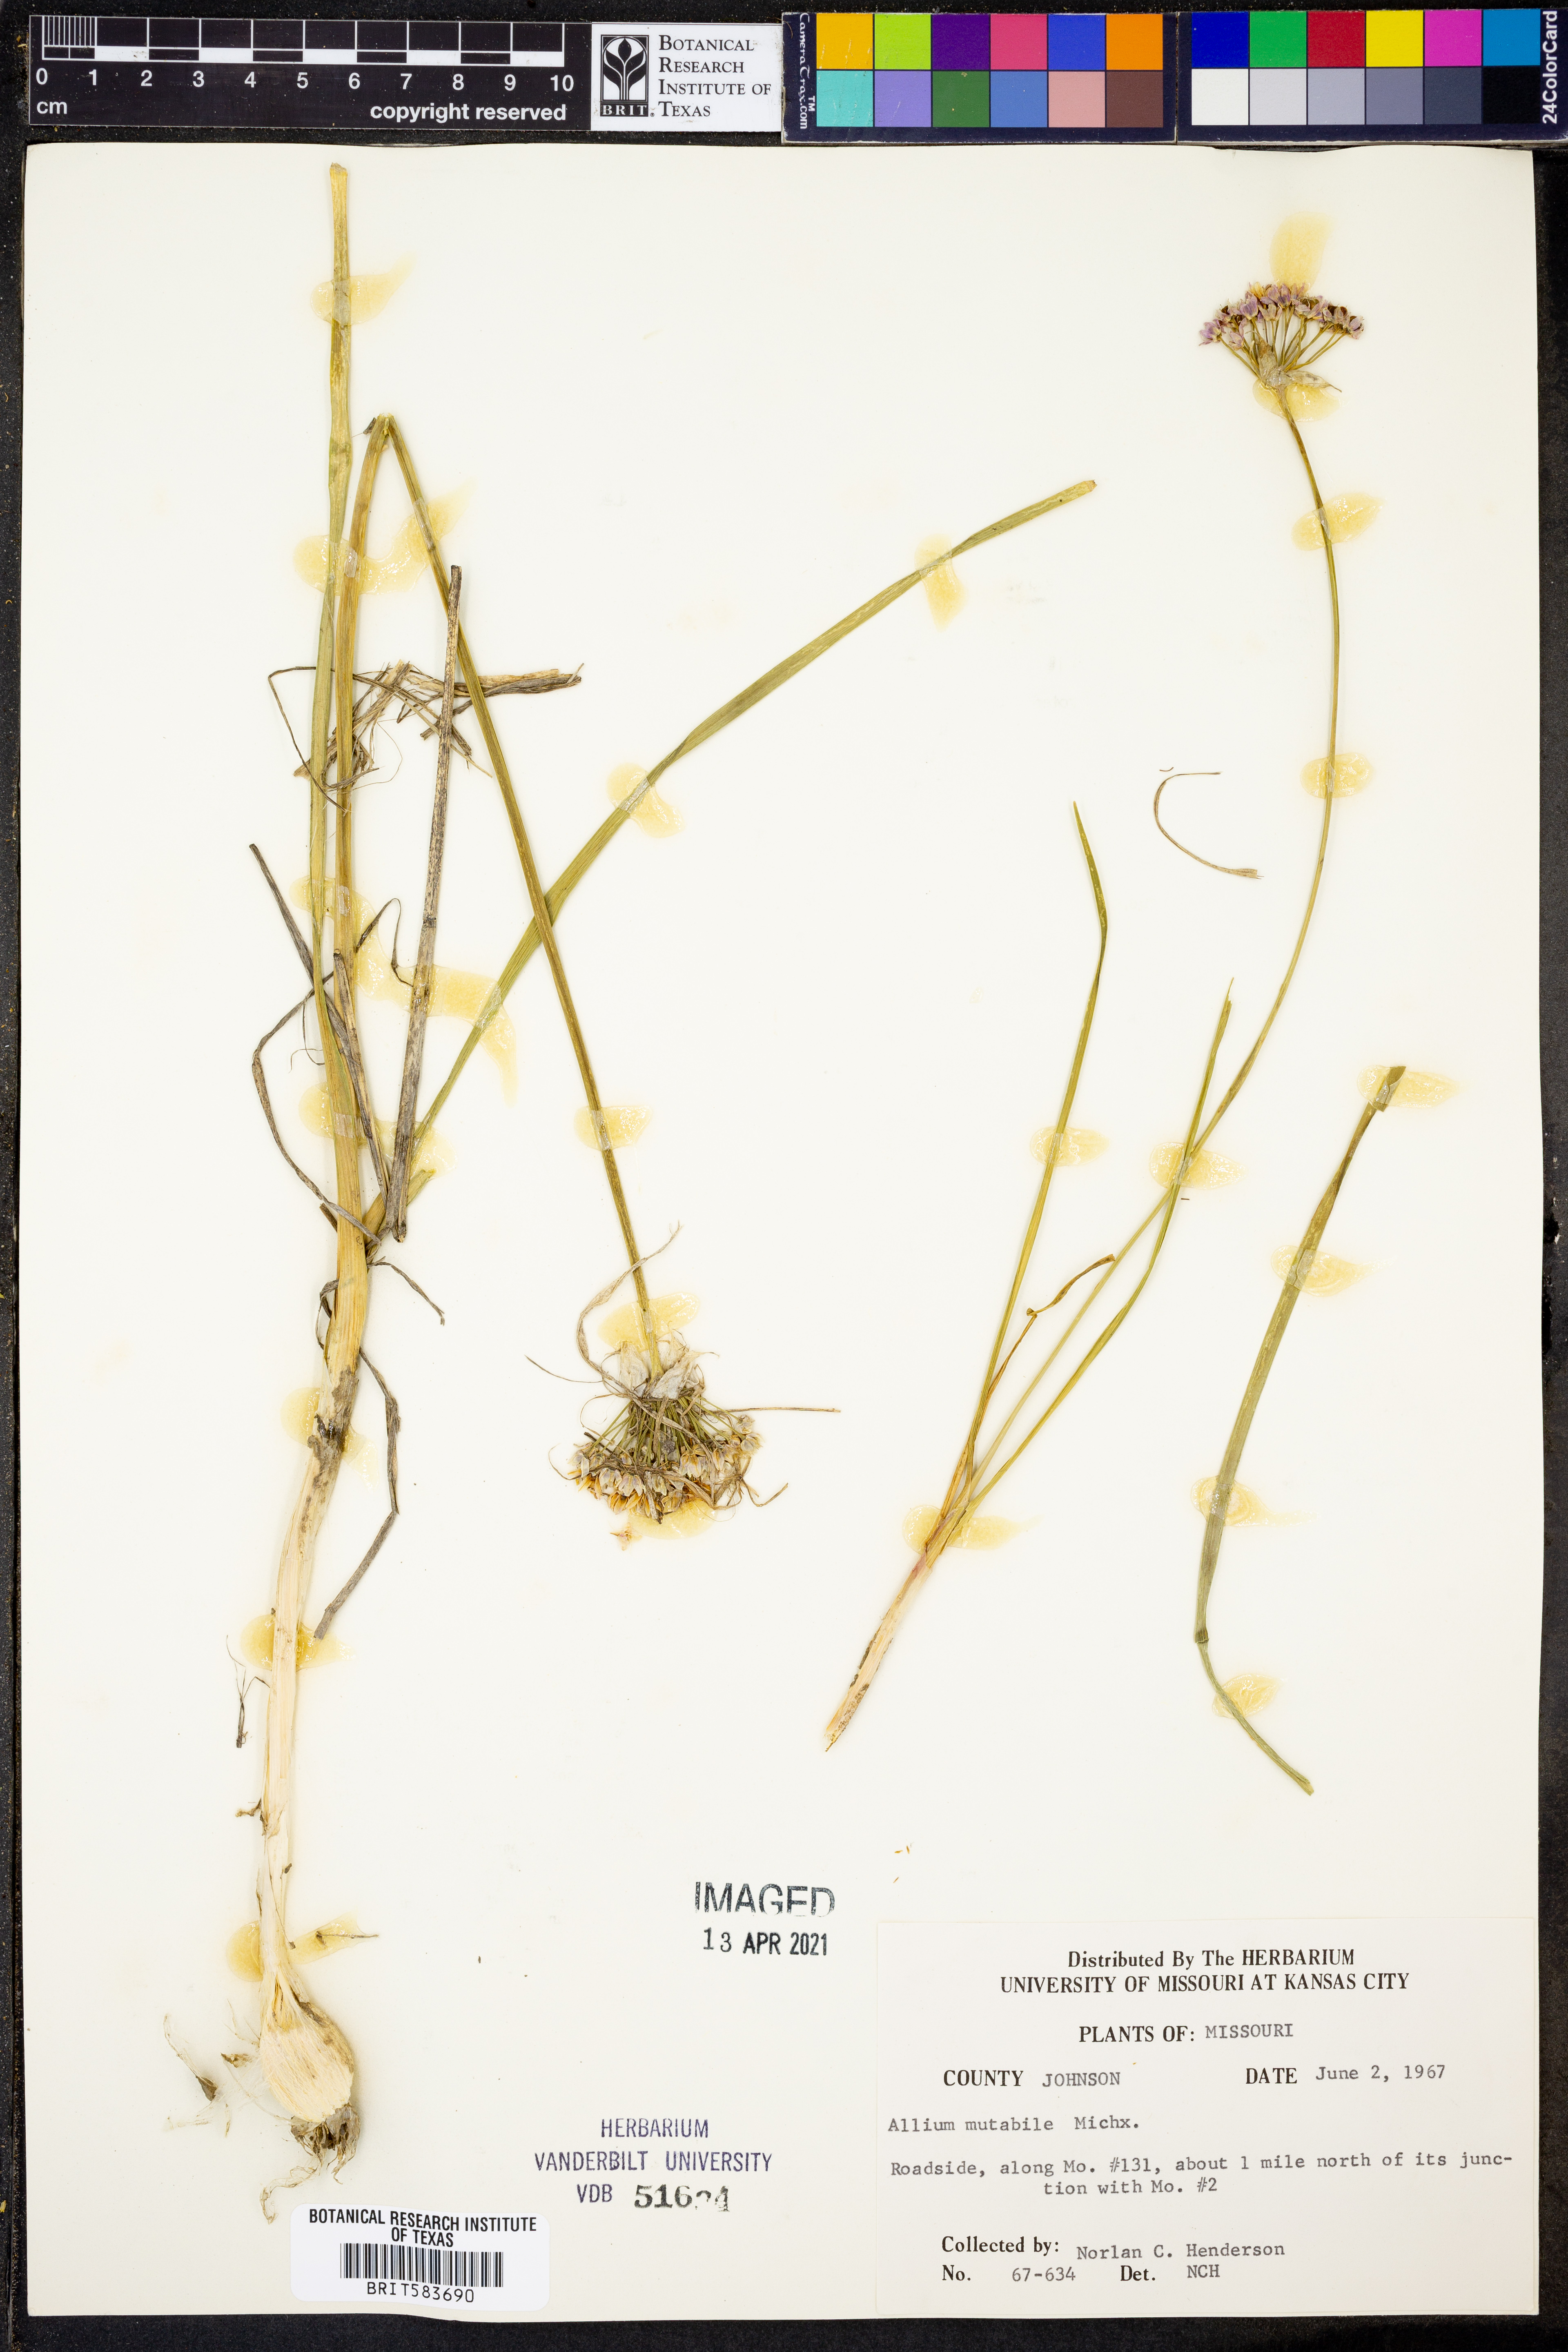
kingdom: Plantae
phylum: Tracheophyta
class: Liliopsida
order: Asparagales
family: Amaryllidaceae
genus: Allium
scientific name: Allium canadense
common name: Meadow garlic
